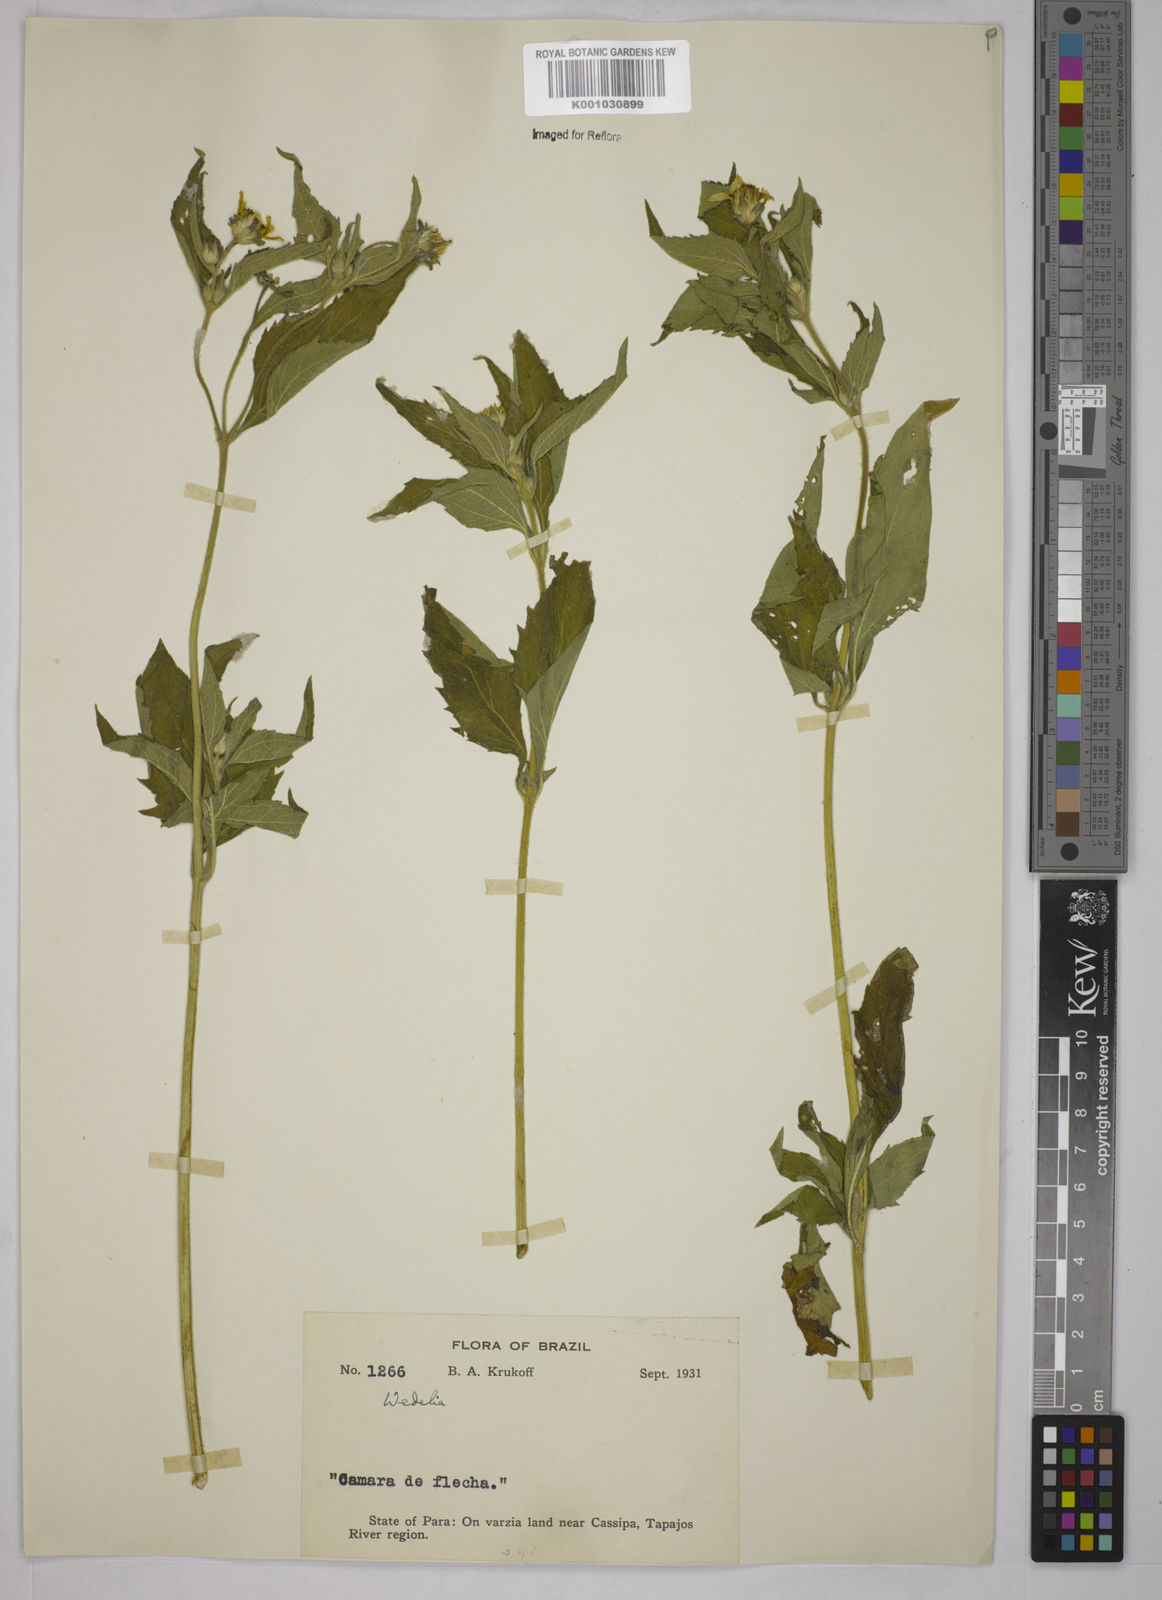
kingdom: Plantae
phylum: Tracheophyta
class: Magnoliopsida
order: Asterales
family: Asteraceae
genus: Wedelia
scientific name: Wedelia
